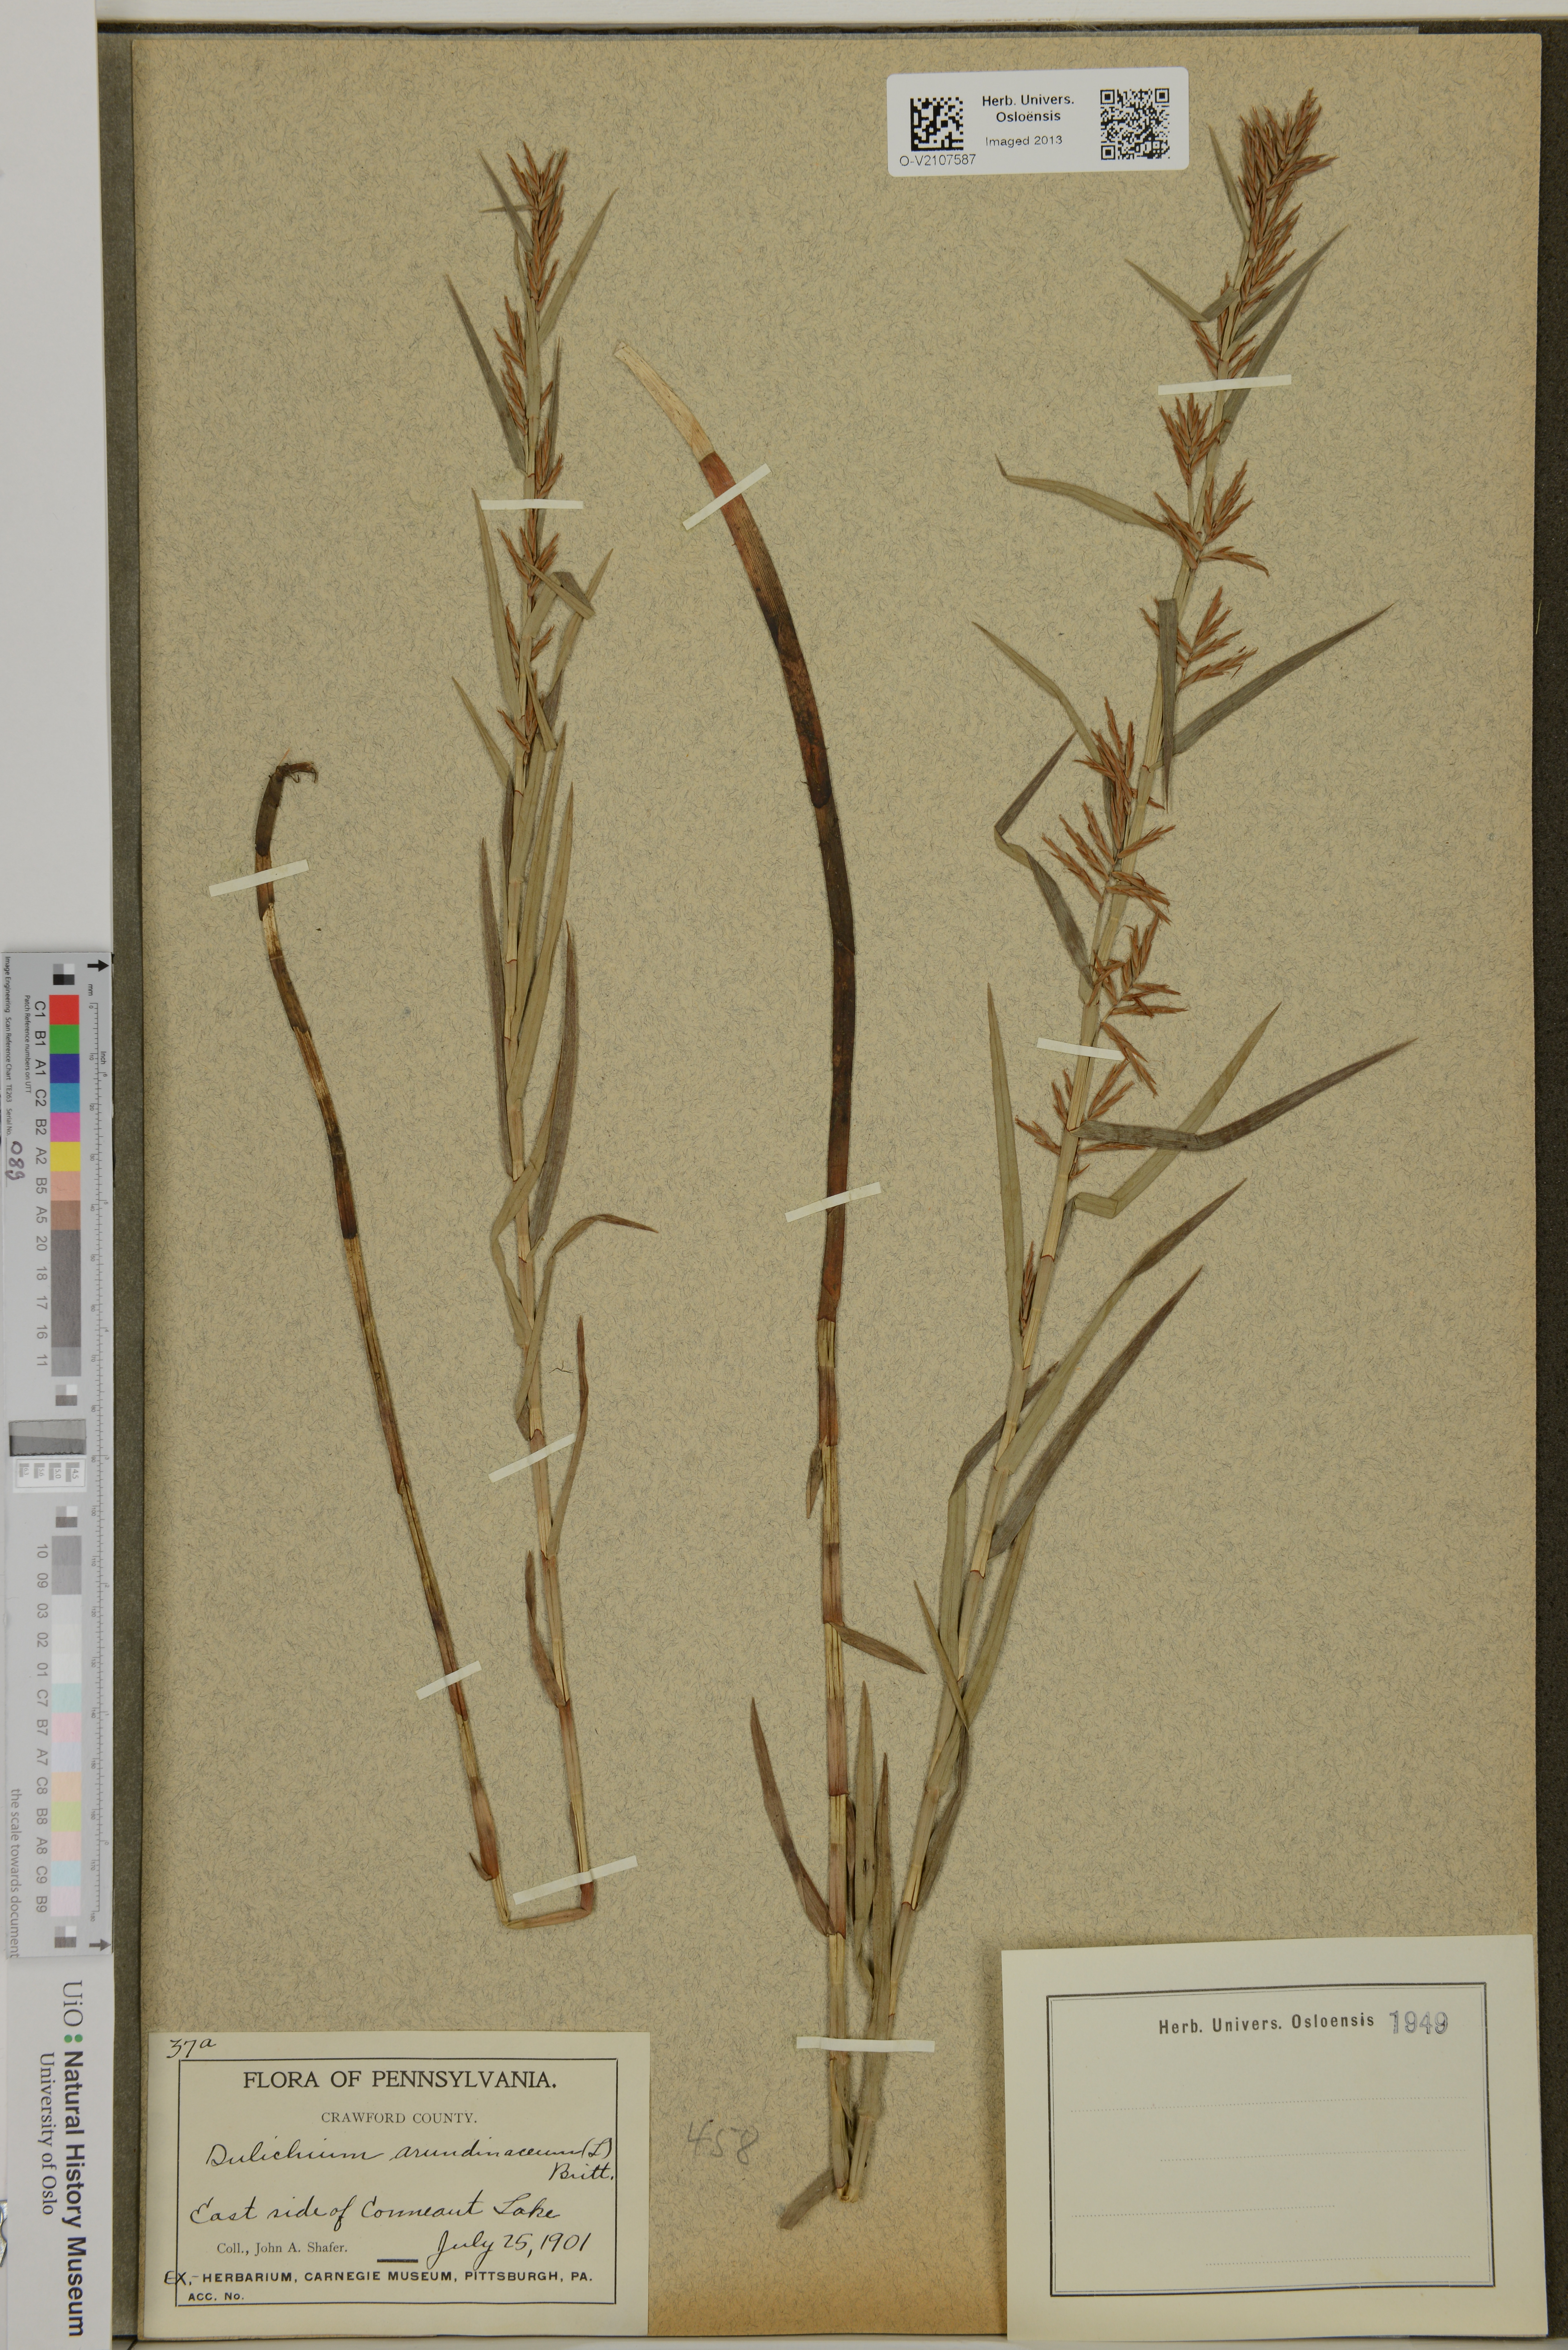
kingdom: Plantae
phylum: Tracheophyta
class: Liliopsida
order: Poales
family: Cyperaceae
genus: Dulichium
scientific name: Dulichium arundinaceum
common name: Three-way sedge
